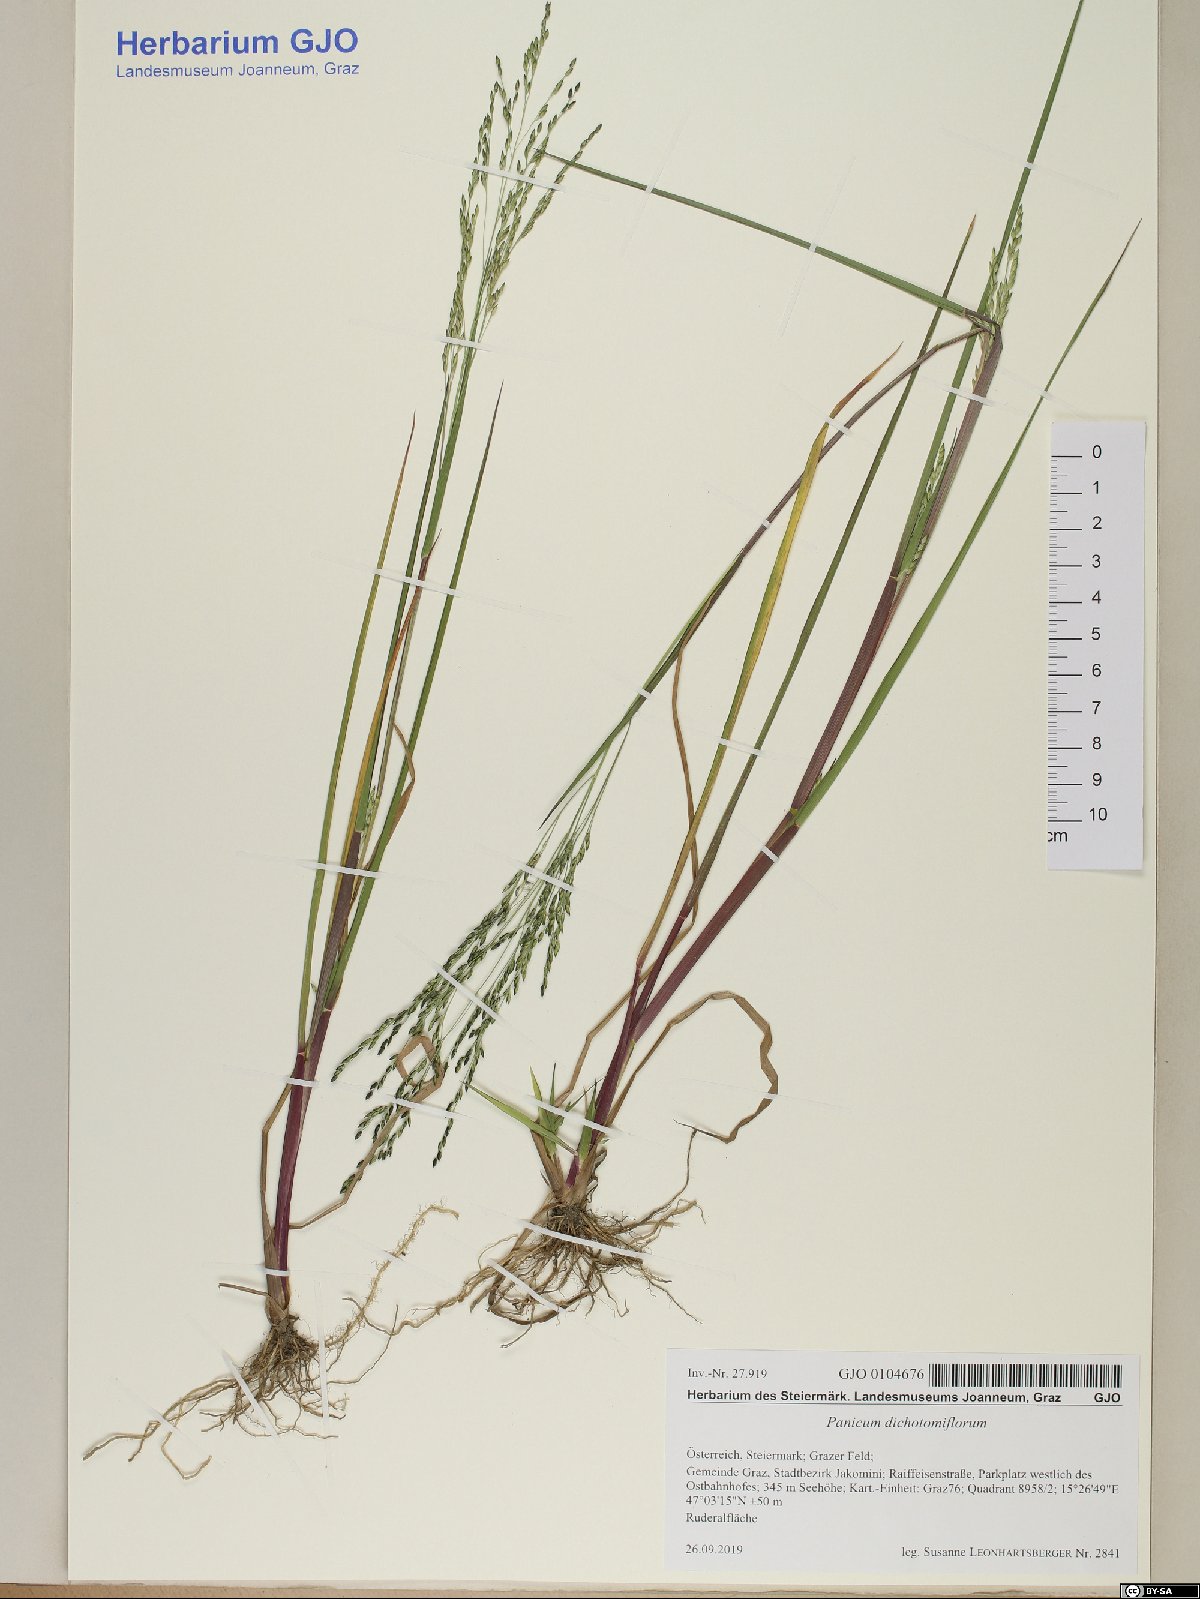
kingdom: Plantae
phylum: Tracheophyta
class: Liliopsida
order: Poales
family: Poaceae
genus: Panicum
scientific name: Panicum dichotomiflorum
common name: Autumn millet
